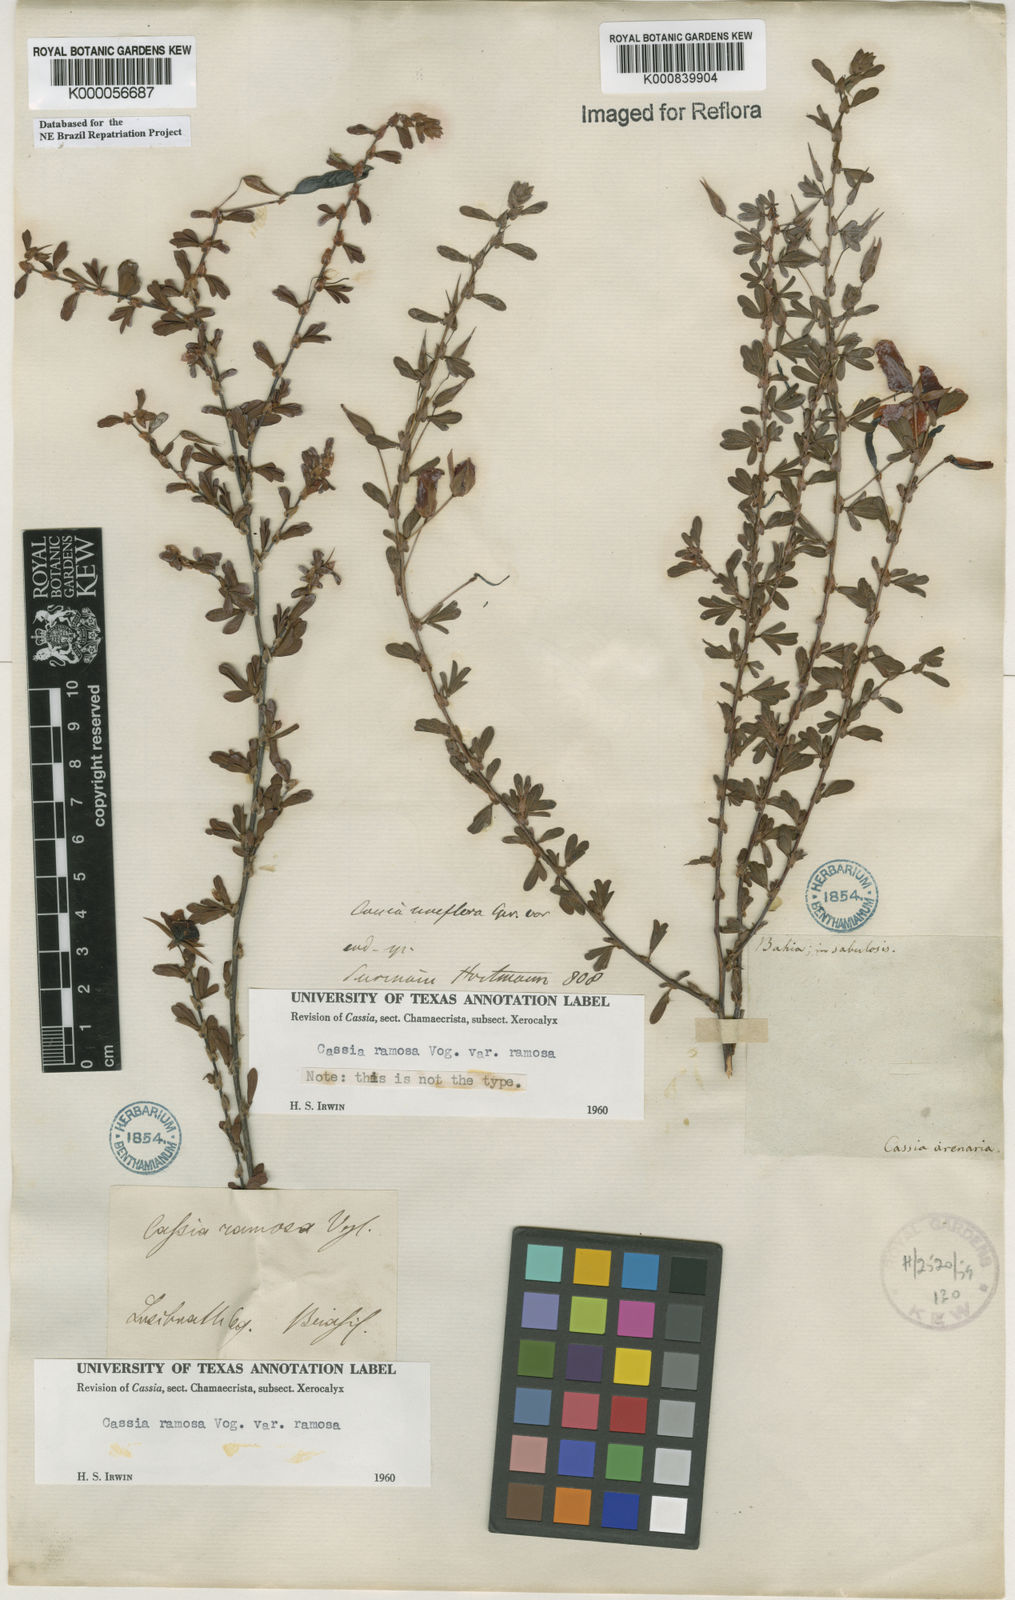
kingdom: Plantae
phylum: Tracheophyta
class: Magnoliopsida
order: Fabales
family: Fabaceae
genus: Chamaecrista
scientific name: Chamaecrista ramosa
